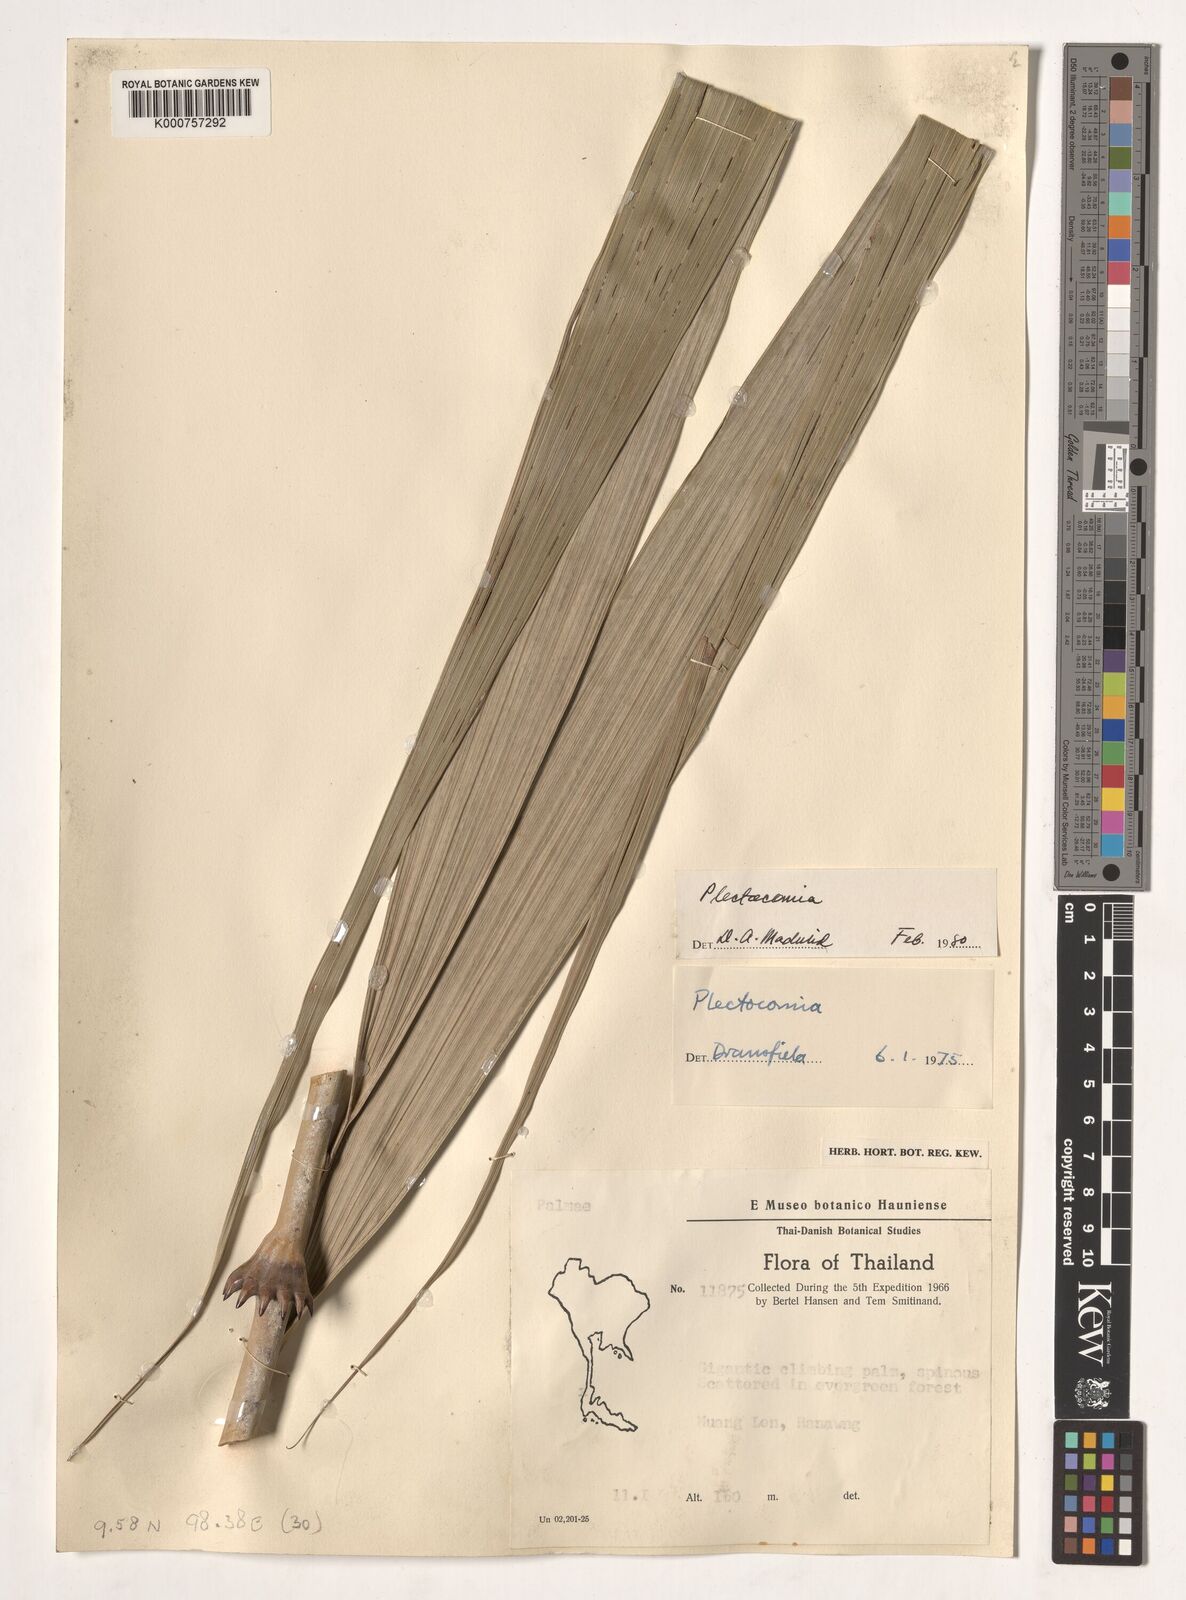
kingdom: Plantae
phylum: Tracheophyta
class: Liliopsida
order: Arecales
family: Arecaceae
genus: Plectocomia
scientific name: Plectocomia
